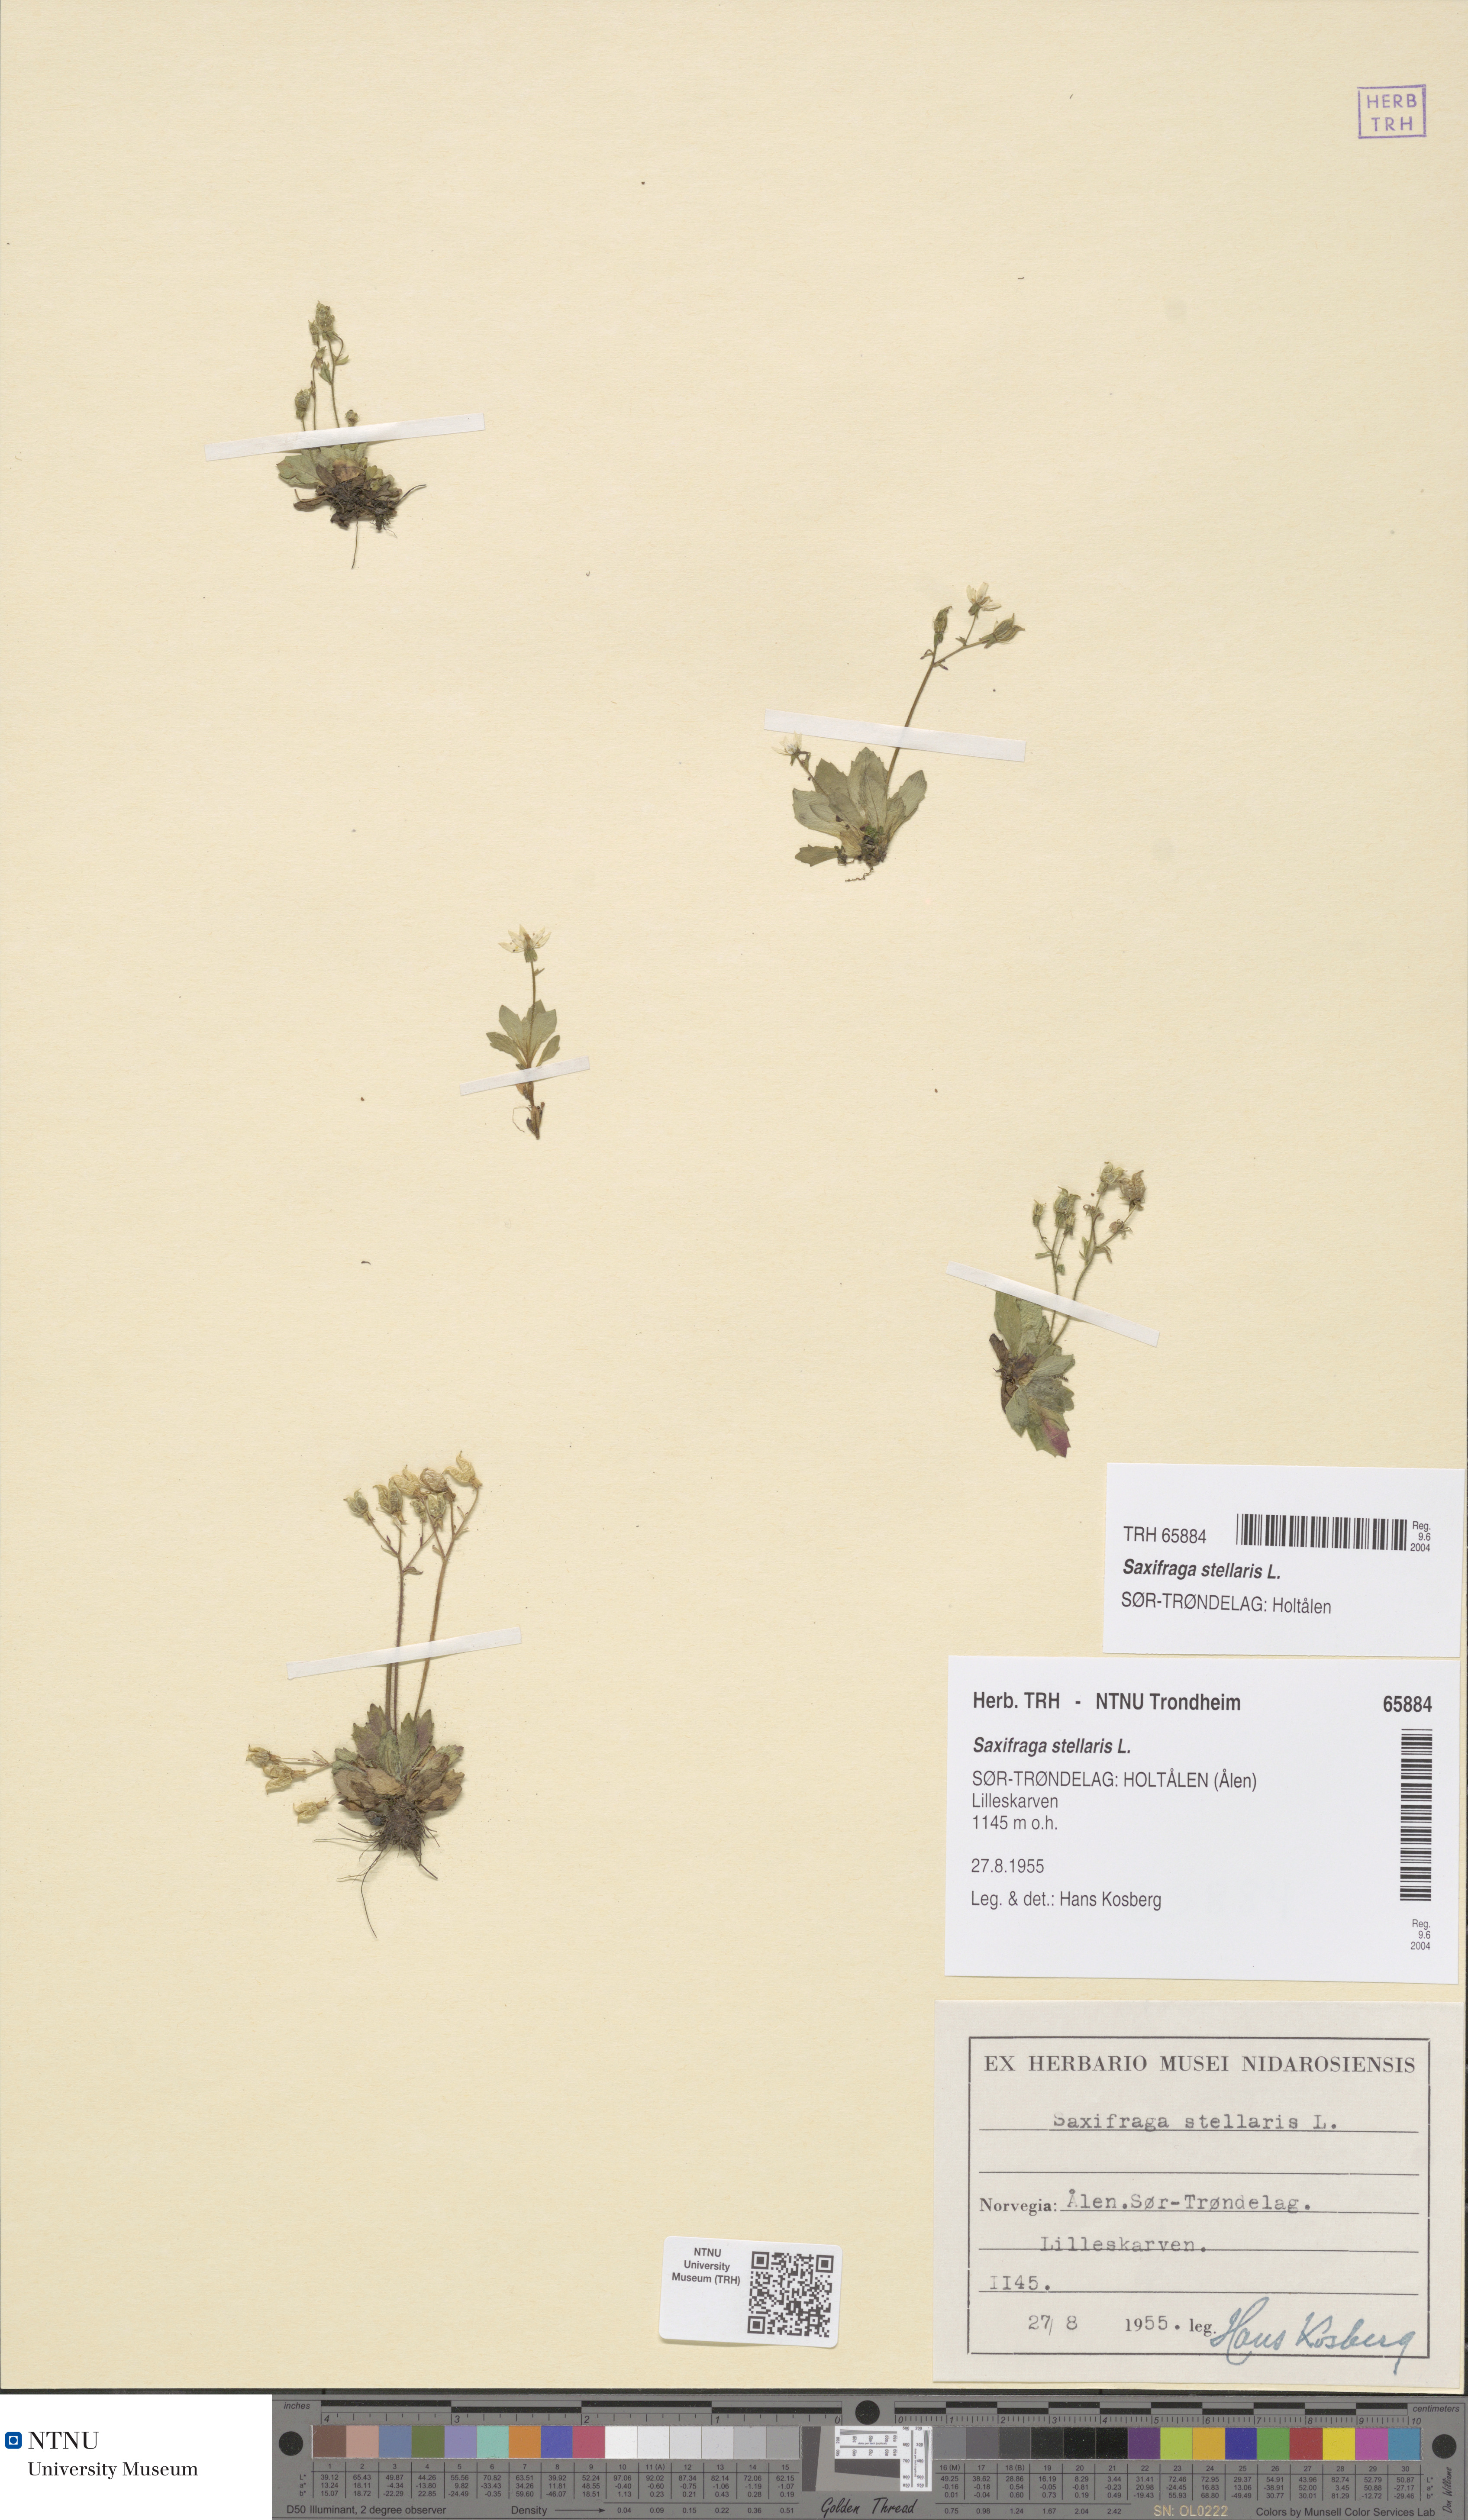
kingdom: Plantae
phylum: Tracheophyta
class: Magnoliopsida
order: Saxifragales
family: Saxifragaceae
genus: Micranthes
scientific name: Micranthes stellaris
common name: Starry saxifrage
